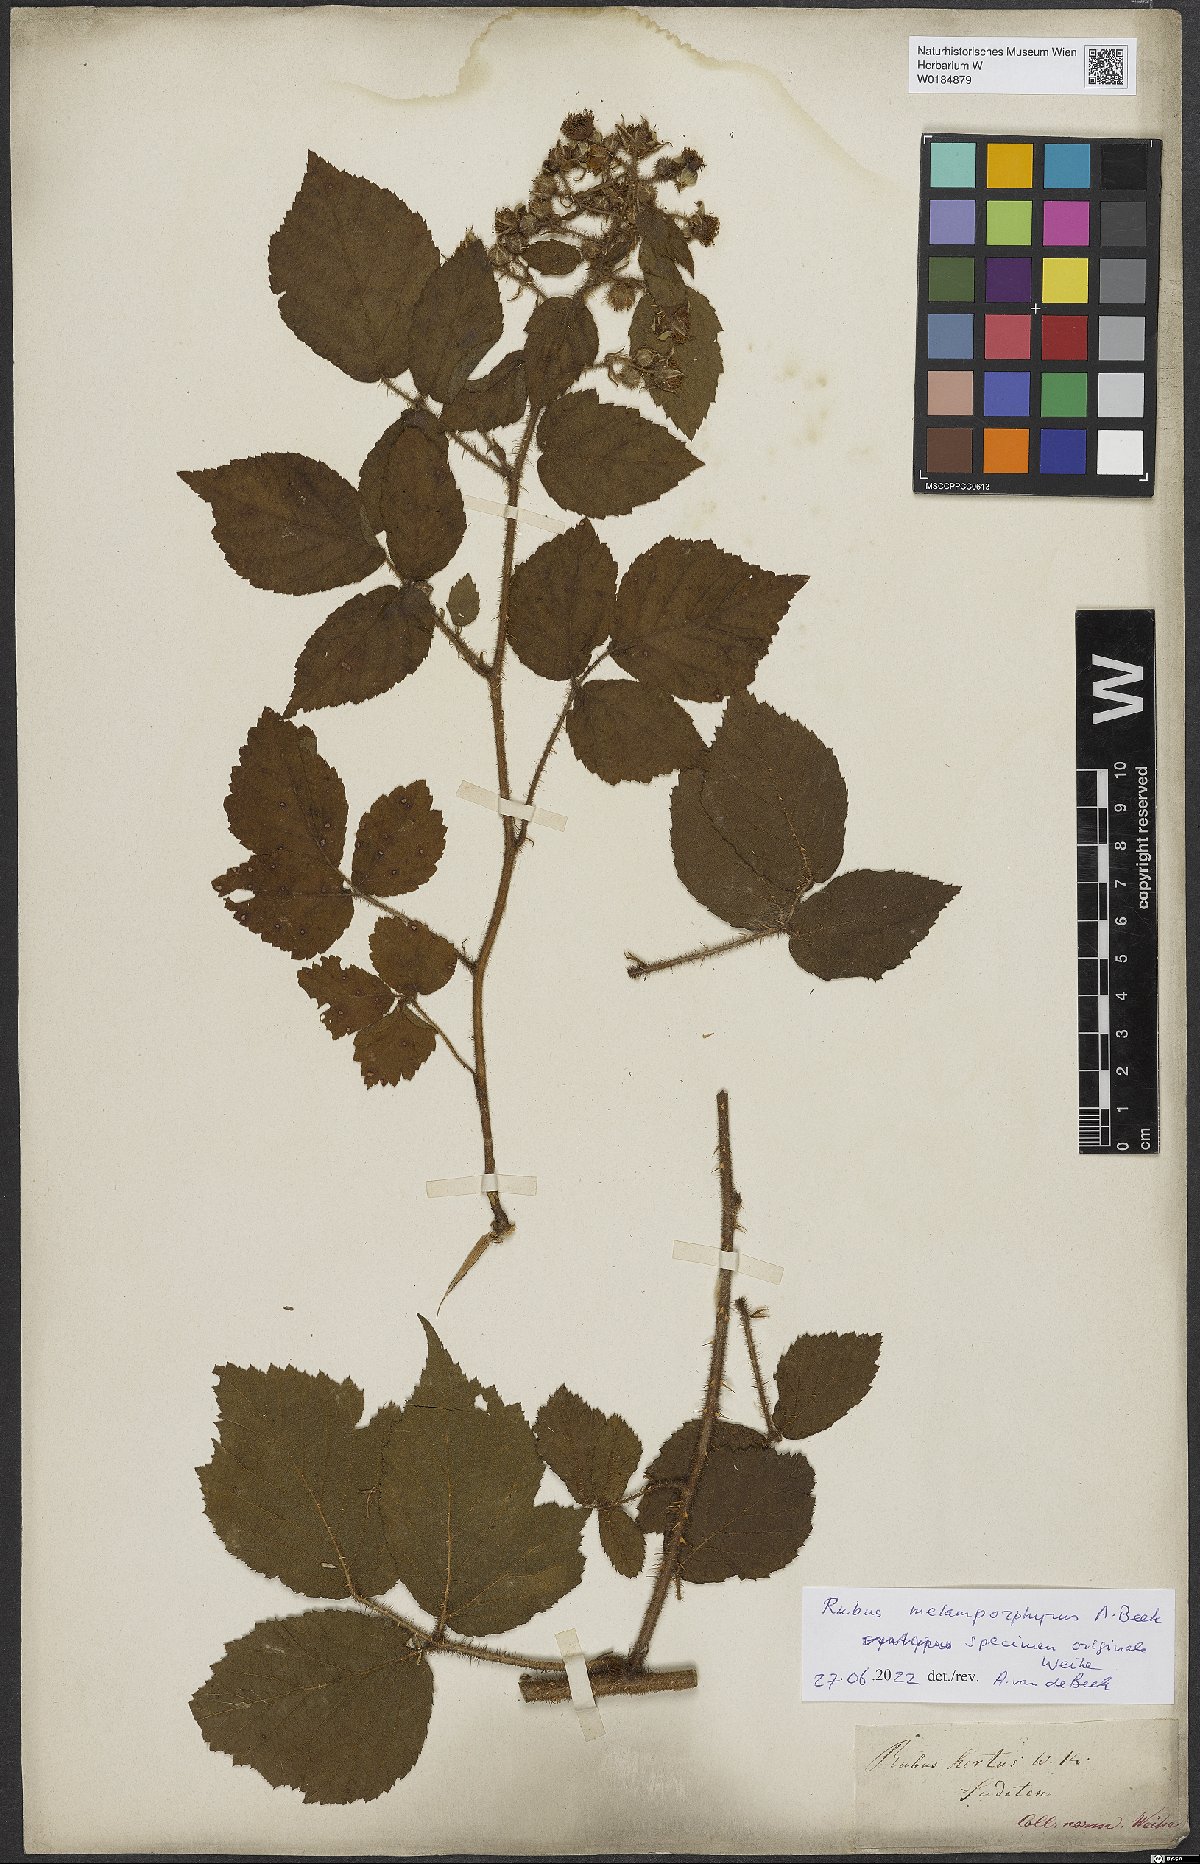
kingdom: Plantae
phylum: Tracheophyta
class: Magnoliopsida
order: Rosales
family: Rosaceae
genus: Rubus
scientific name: Rubus melamporphyrus
